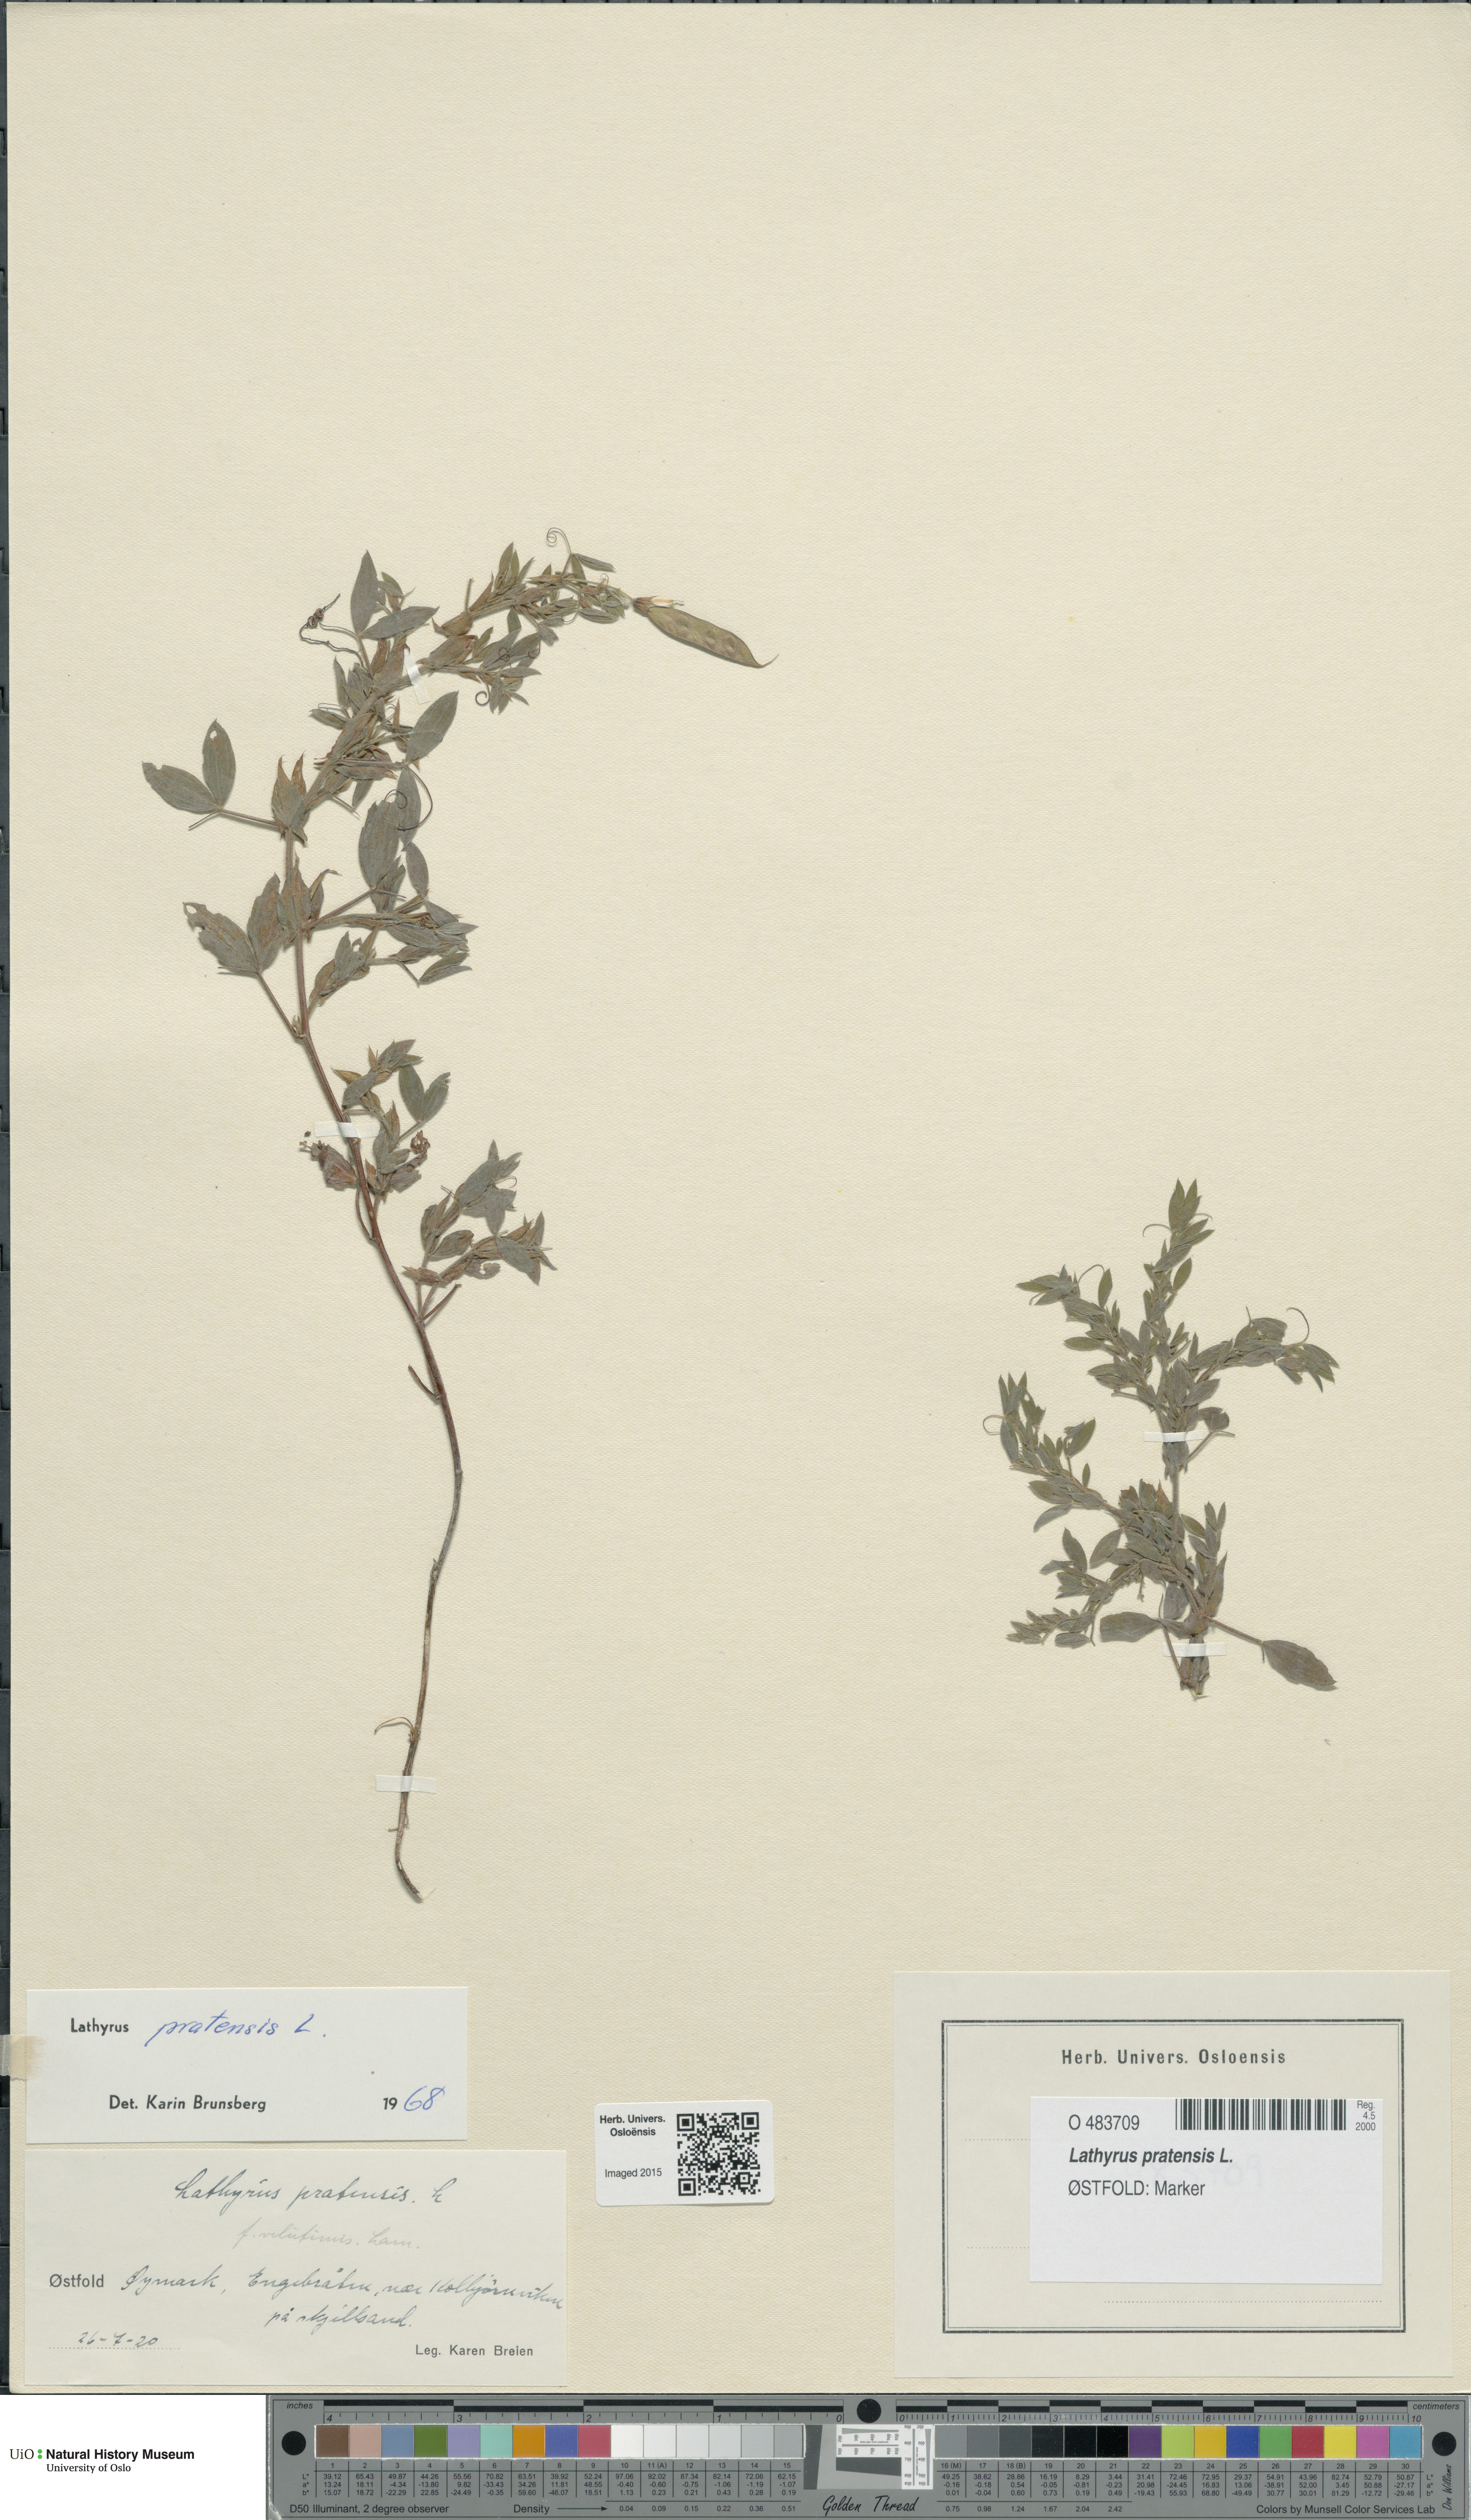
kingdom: Plantae
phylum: Tracheophyta
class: Magnoliopsida
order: Fabales
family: Fabaceae
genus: Lathyrus
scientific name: Lathyrus pratensis
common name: Meadow vetchling
